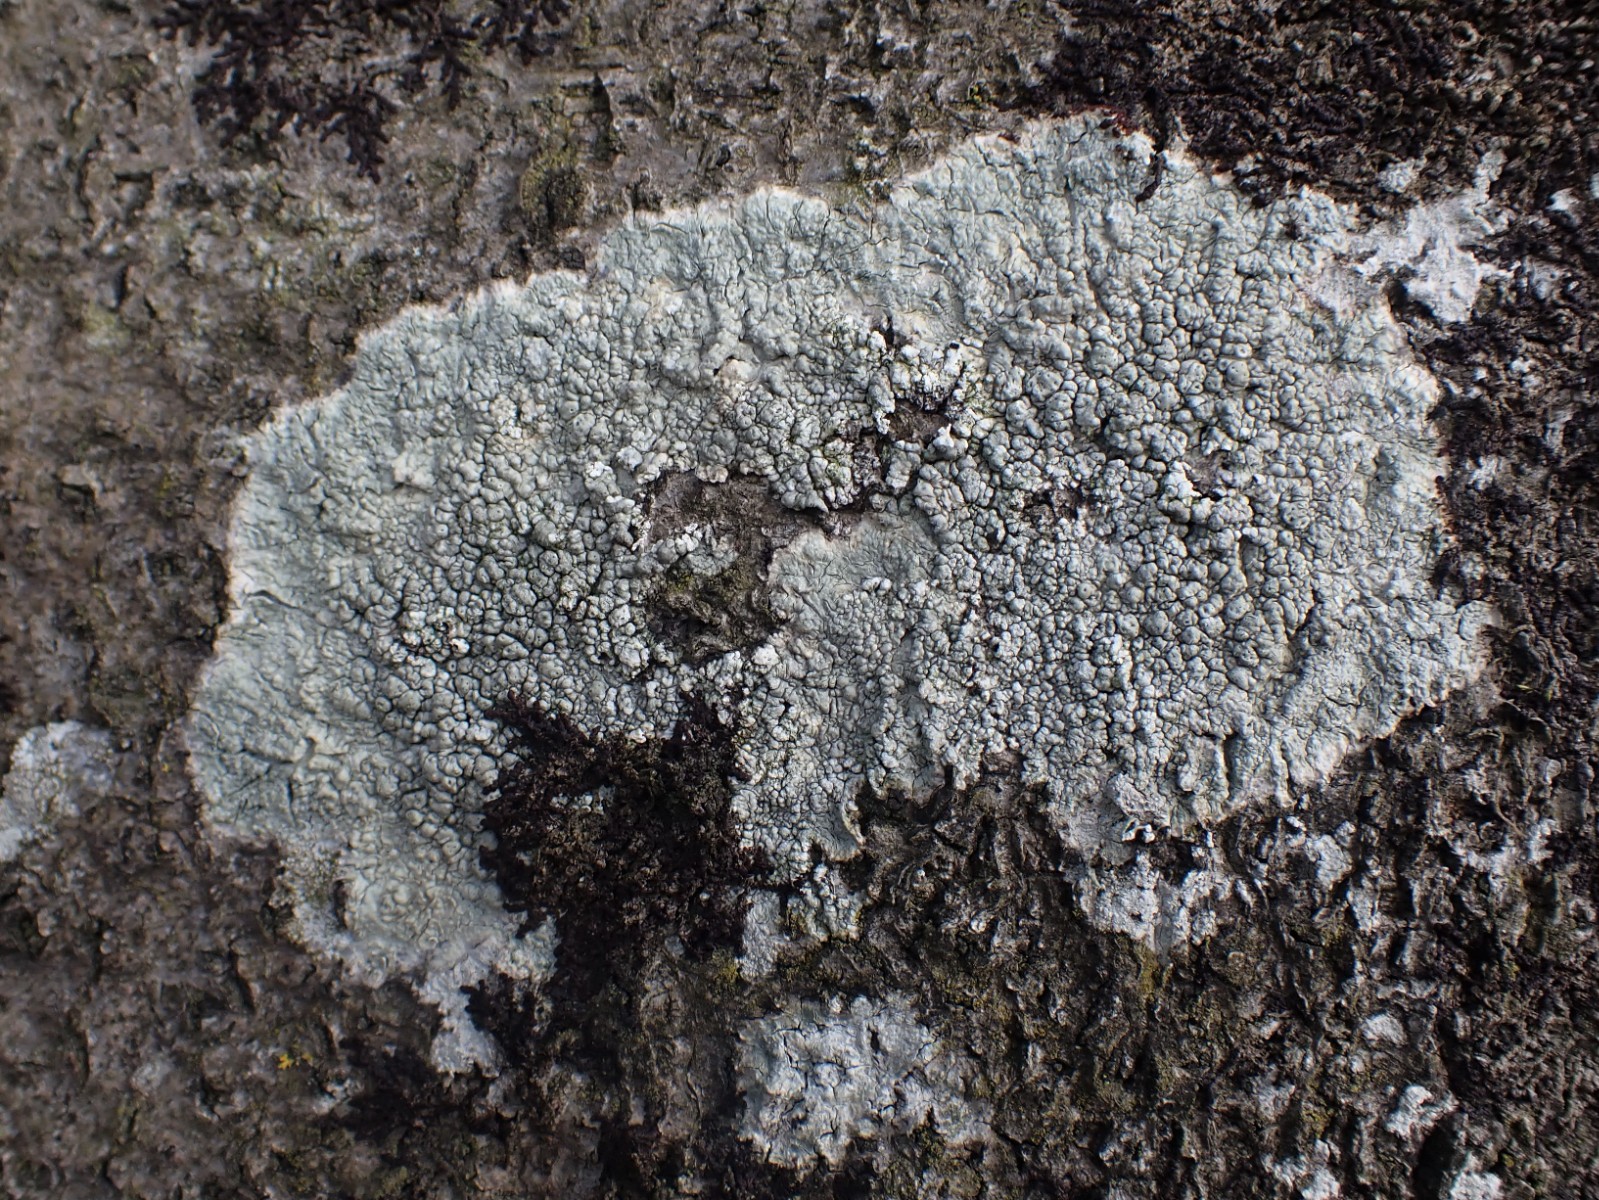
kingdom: Fungi
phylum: Ascomycota
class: Lecanoromycetes
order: Pertusariales
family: Pertusariaceae
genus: Pertusaria
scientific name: Pertusaria pertusa
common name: almindelig prikvortelav
